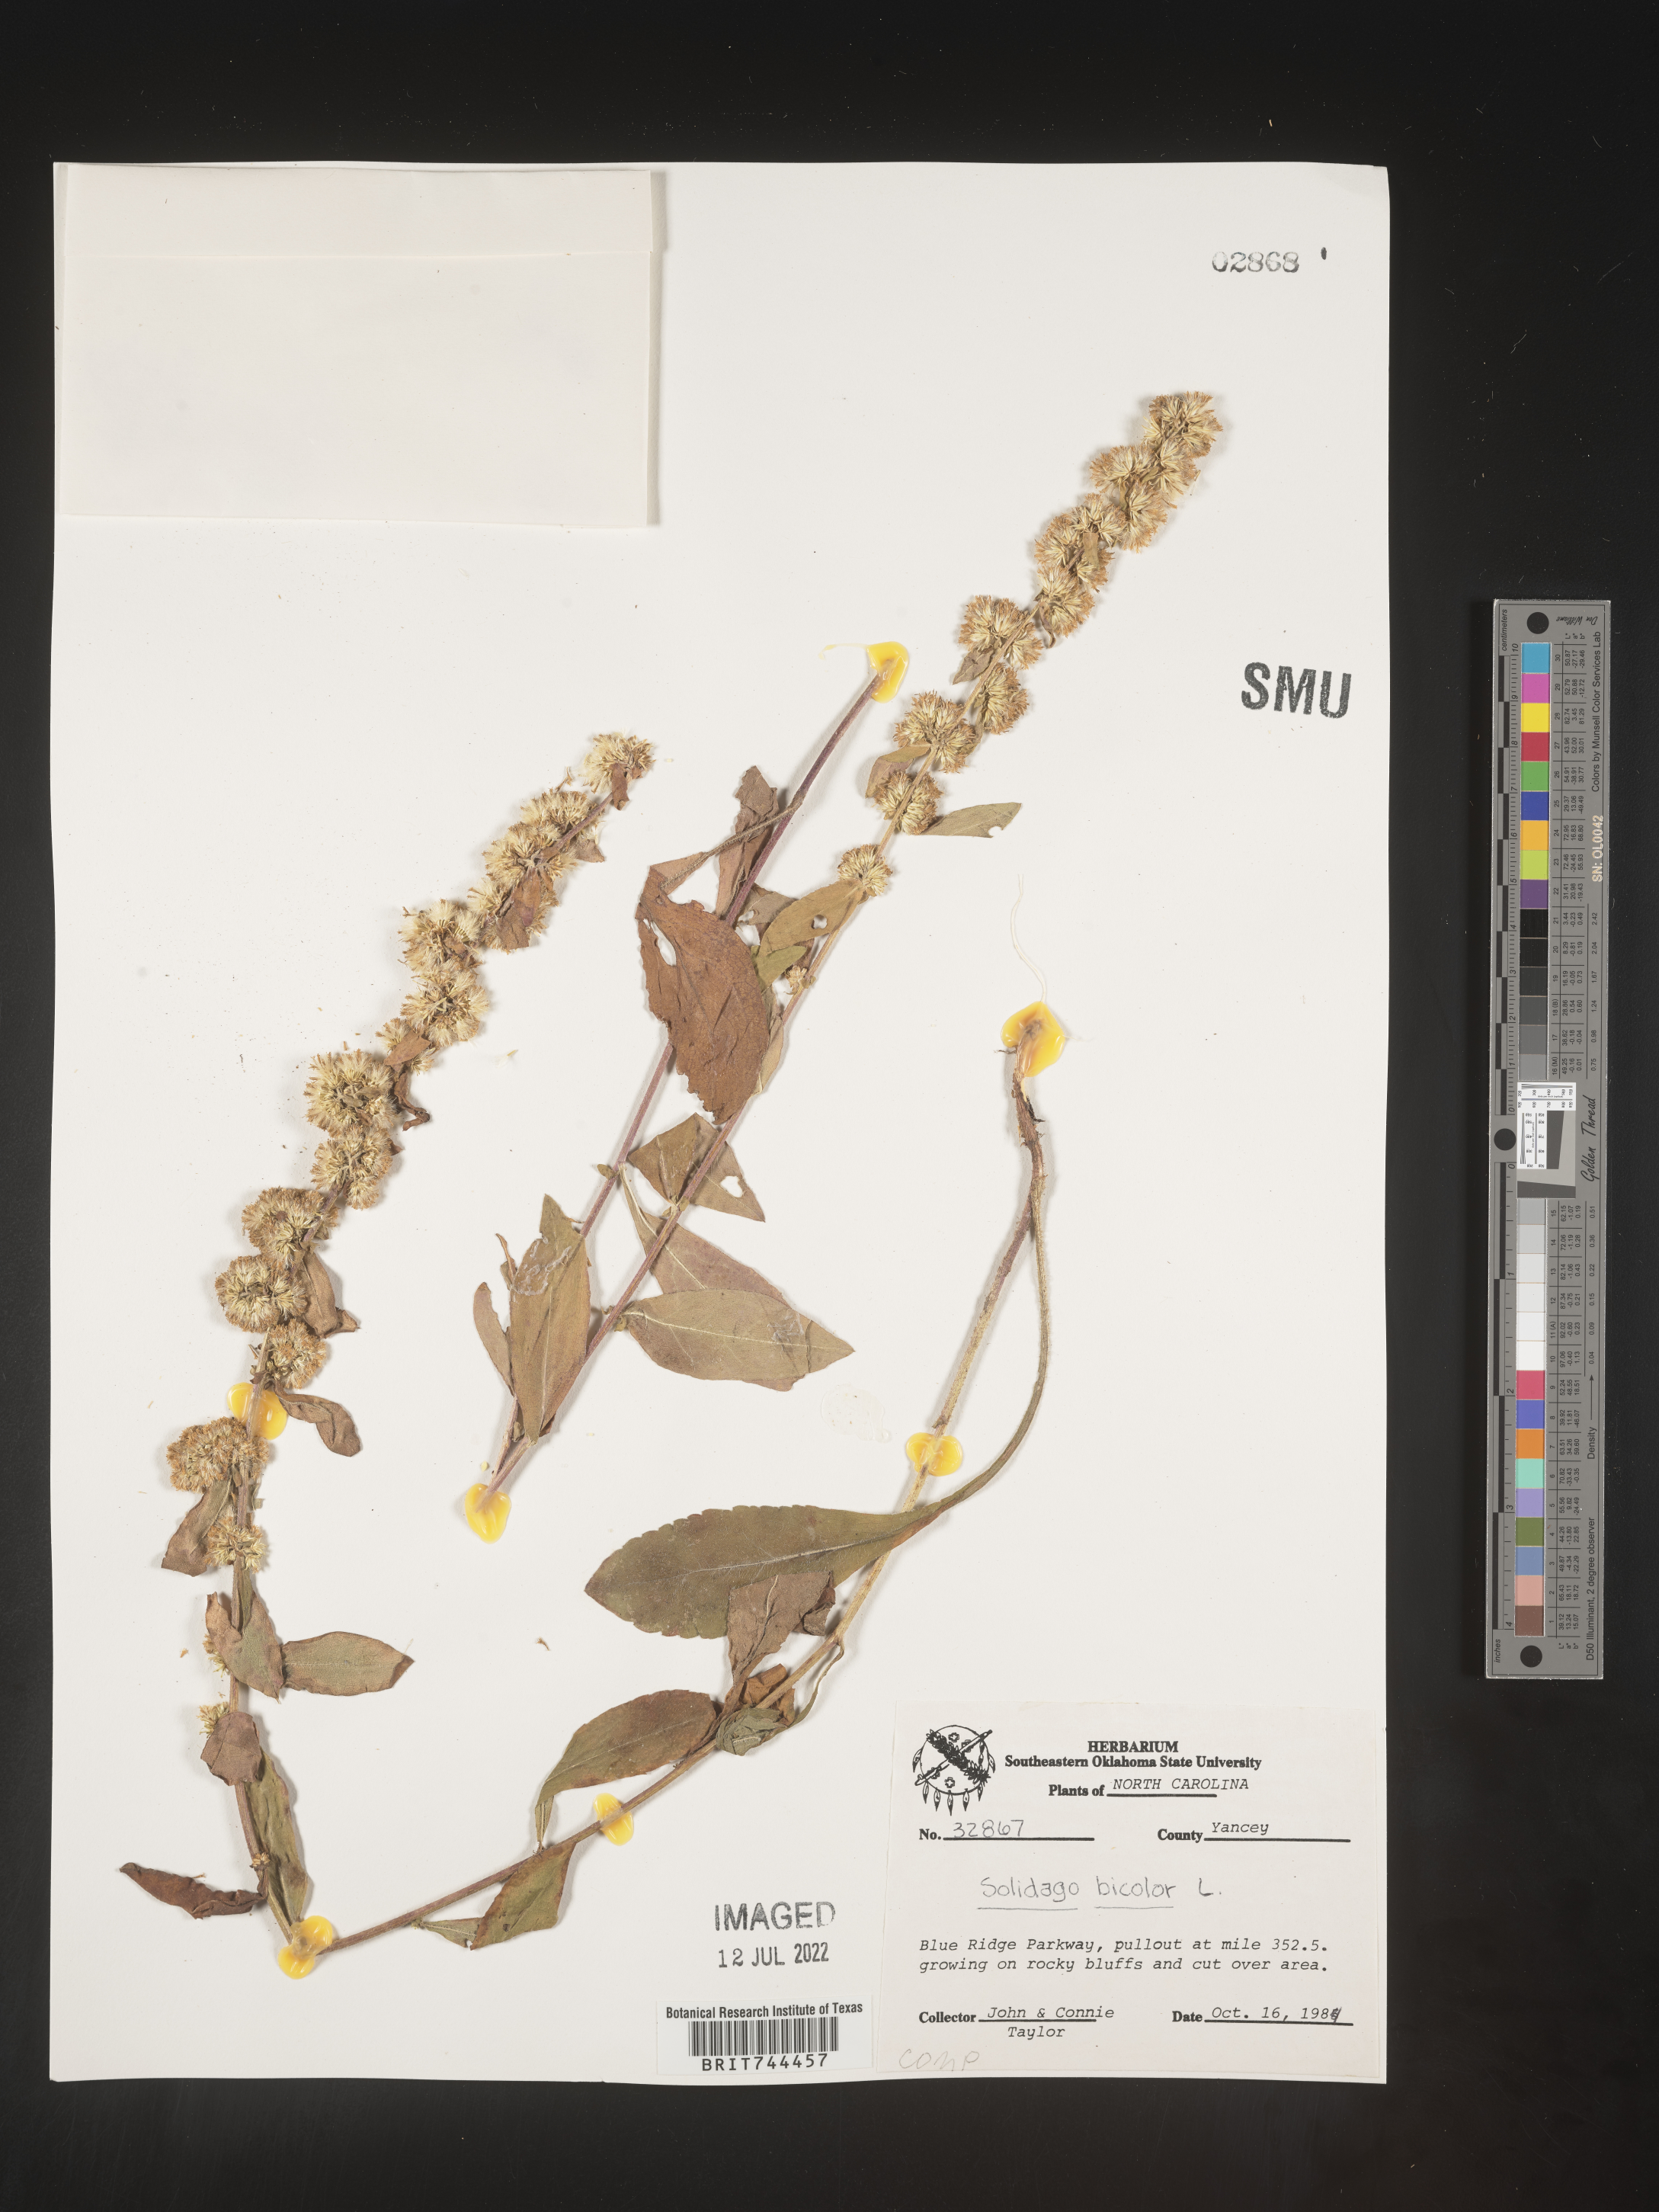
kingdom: Plantae
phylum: Tracheophyta
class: Magnoliopsida
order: Asterales
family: Asteraceae
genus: Solidago
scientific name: Solidago bicolor
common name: Silverrod
